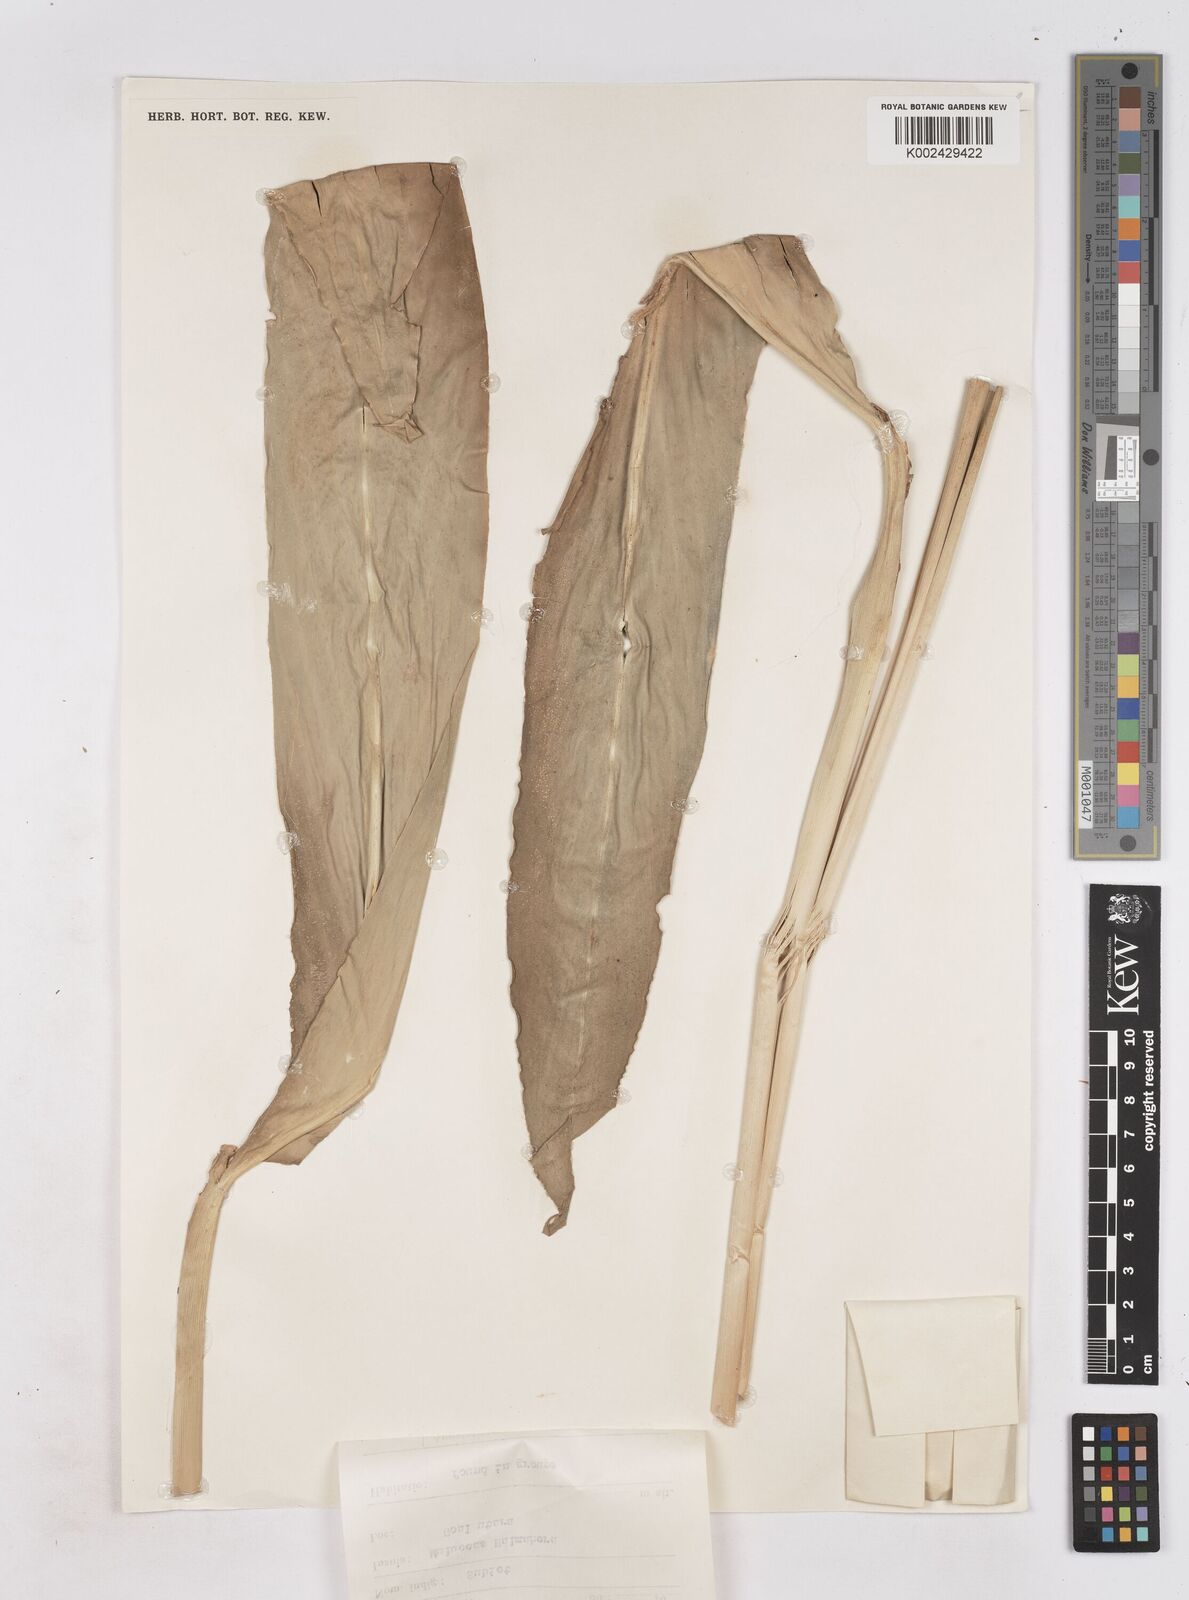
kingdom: Plantae
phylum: Tracheophyta
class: Liliopsida
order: Zingiberales
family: Zingiberaceae
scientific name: Zingiberaceae
